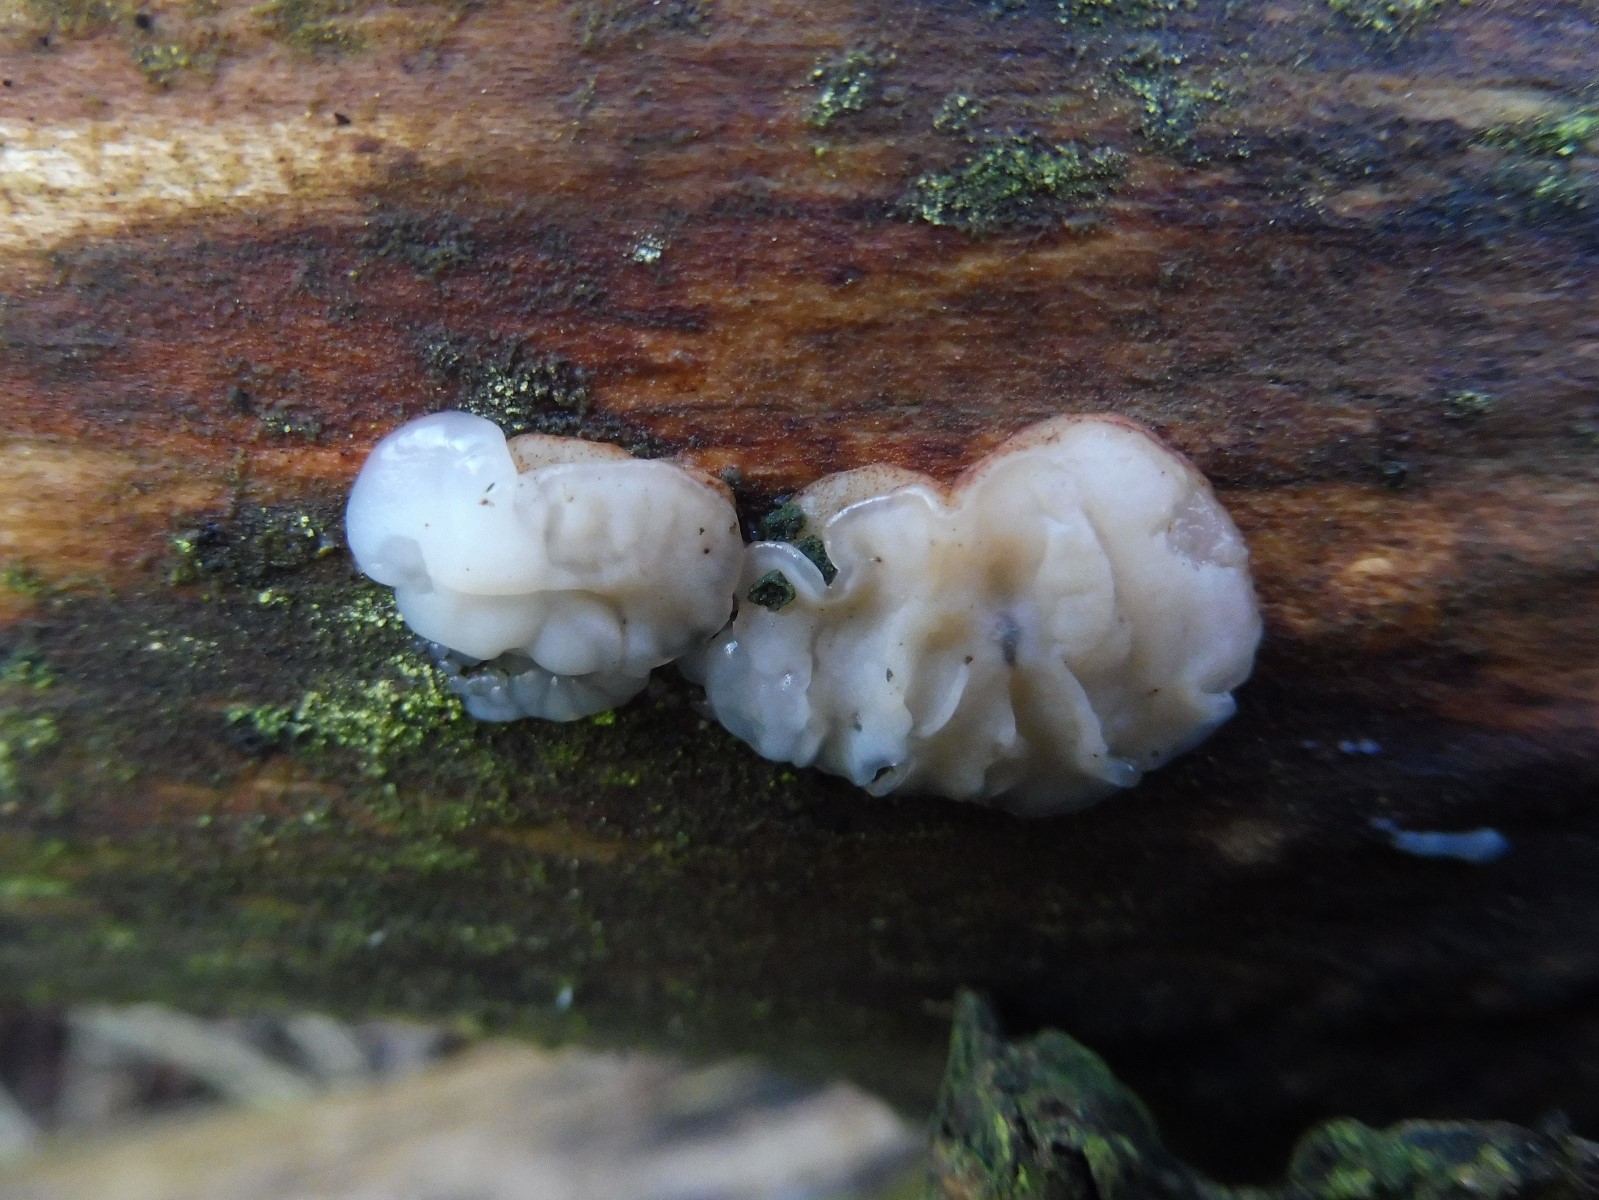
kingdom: Fungi
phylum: Basidiomycota
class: Agaricomycetes
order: Auriculariales
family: Auriculariaceae
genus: Exidia
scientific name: Exidia thuretiana
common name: hvidlig bævretop
